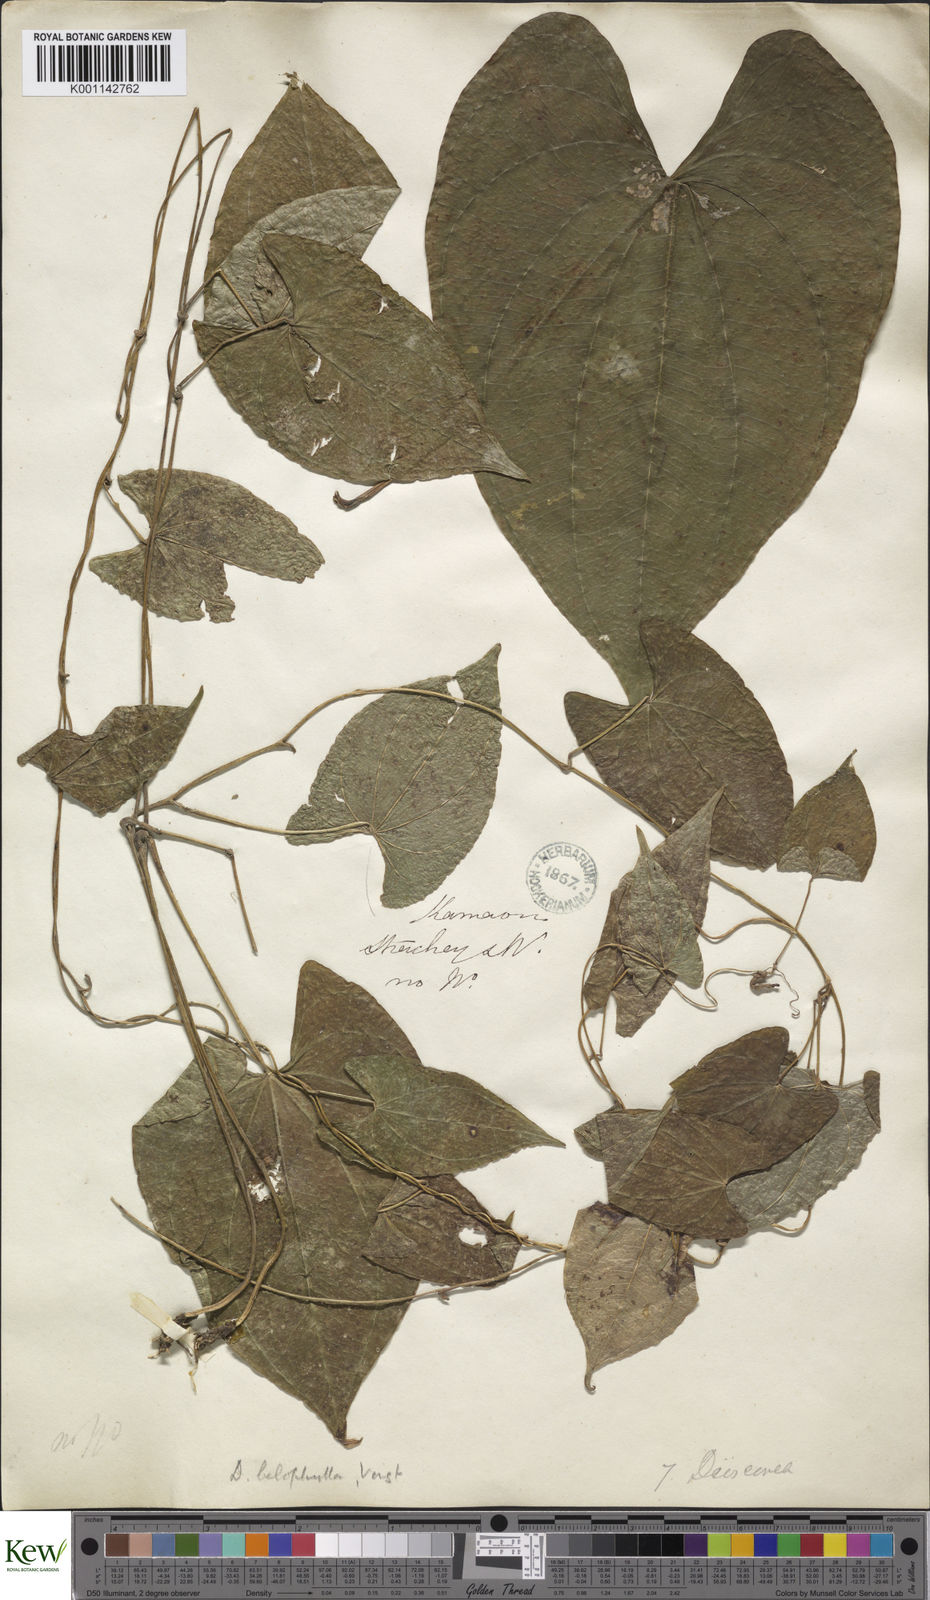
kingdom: Plantae
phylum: Tracheophyta
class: Liliopsida
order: Dioscoreales
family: Dioscoreaceae
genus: Dioscorea
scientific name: Dioscorea belophylla
